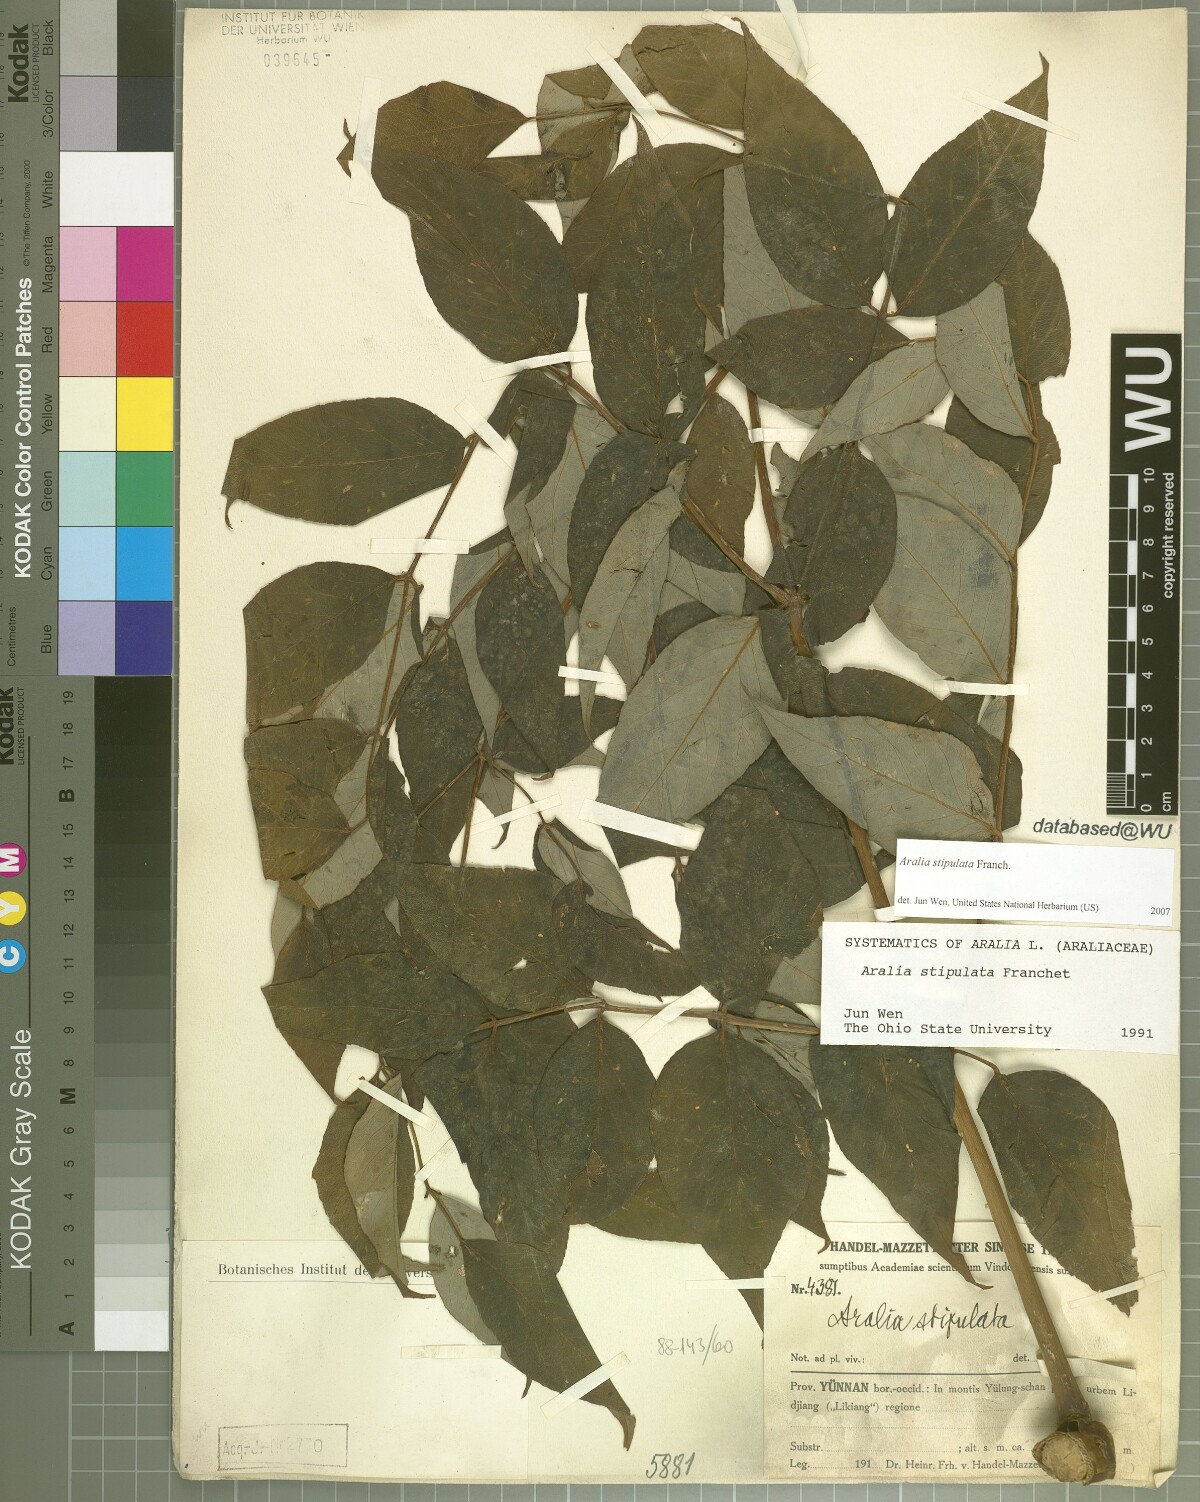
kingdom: Plantae
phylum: Tracheophyta
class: Magnoliopsida
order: Apiales
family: Araliaceae
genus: Aralia
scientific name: Aralia stipulata
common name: Chinese angelica-tree
